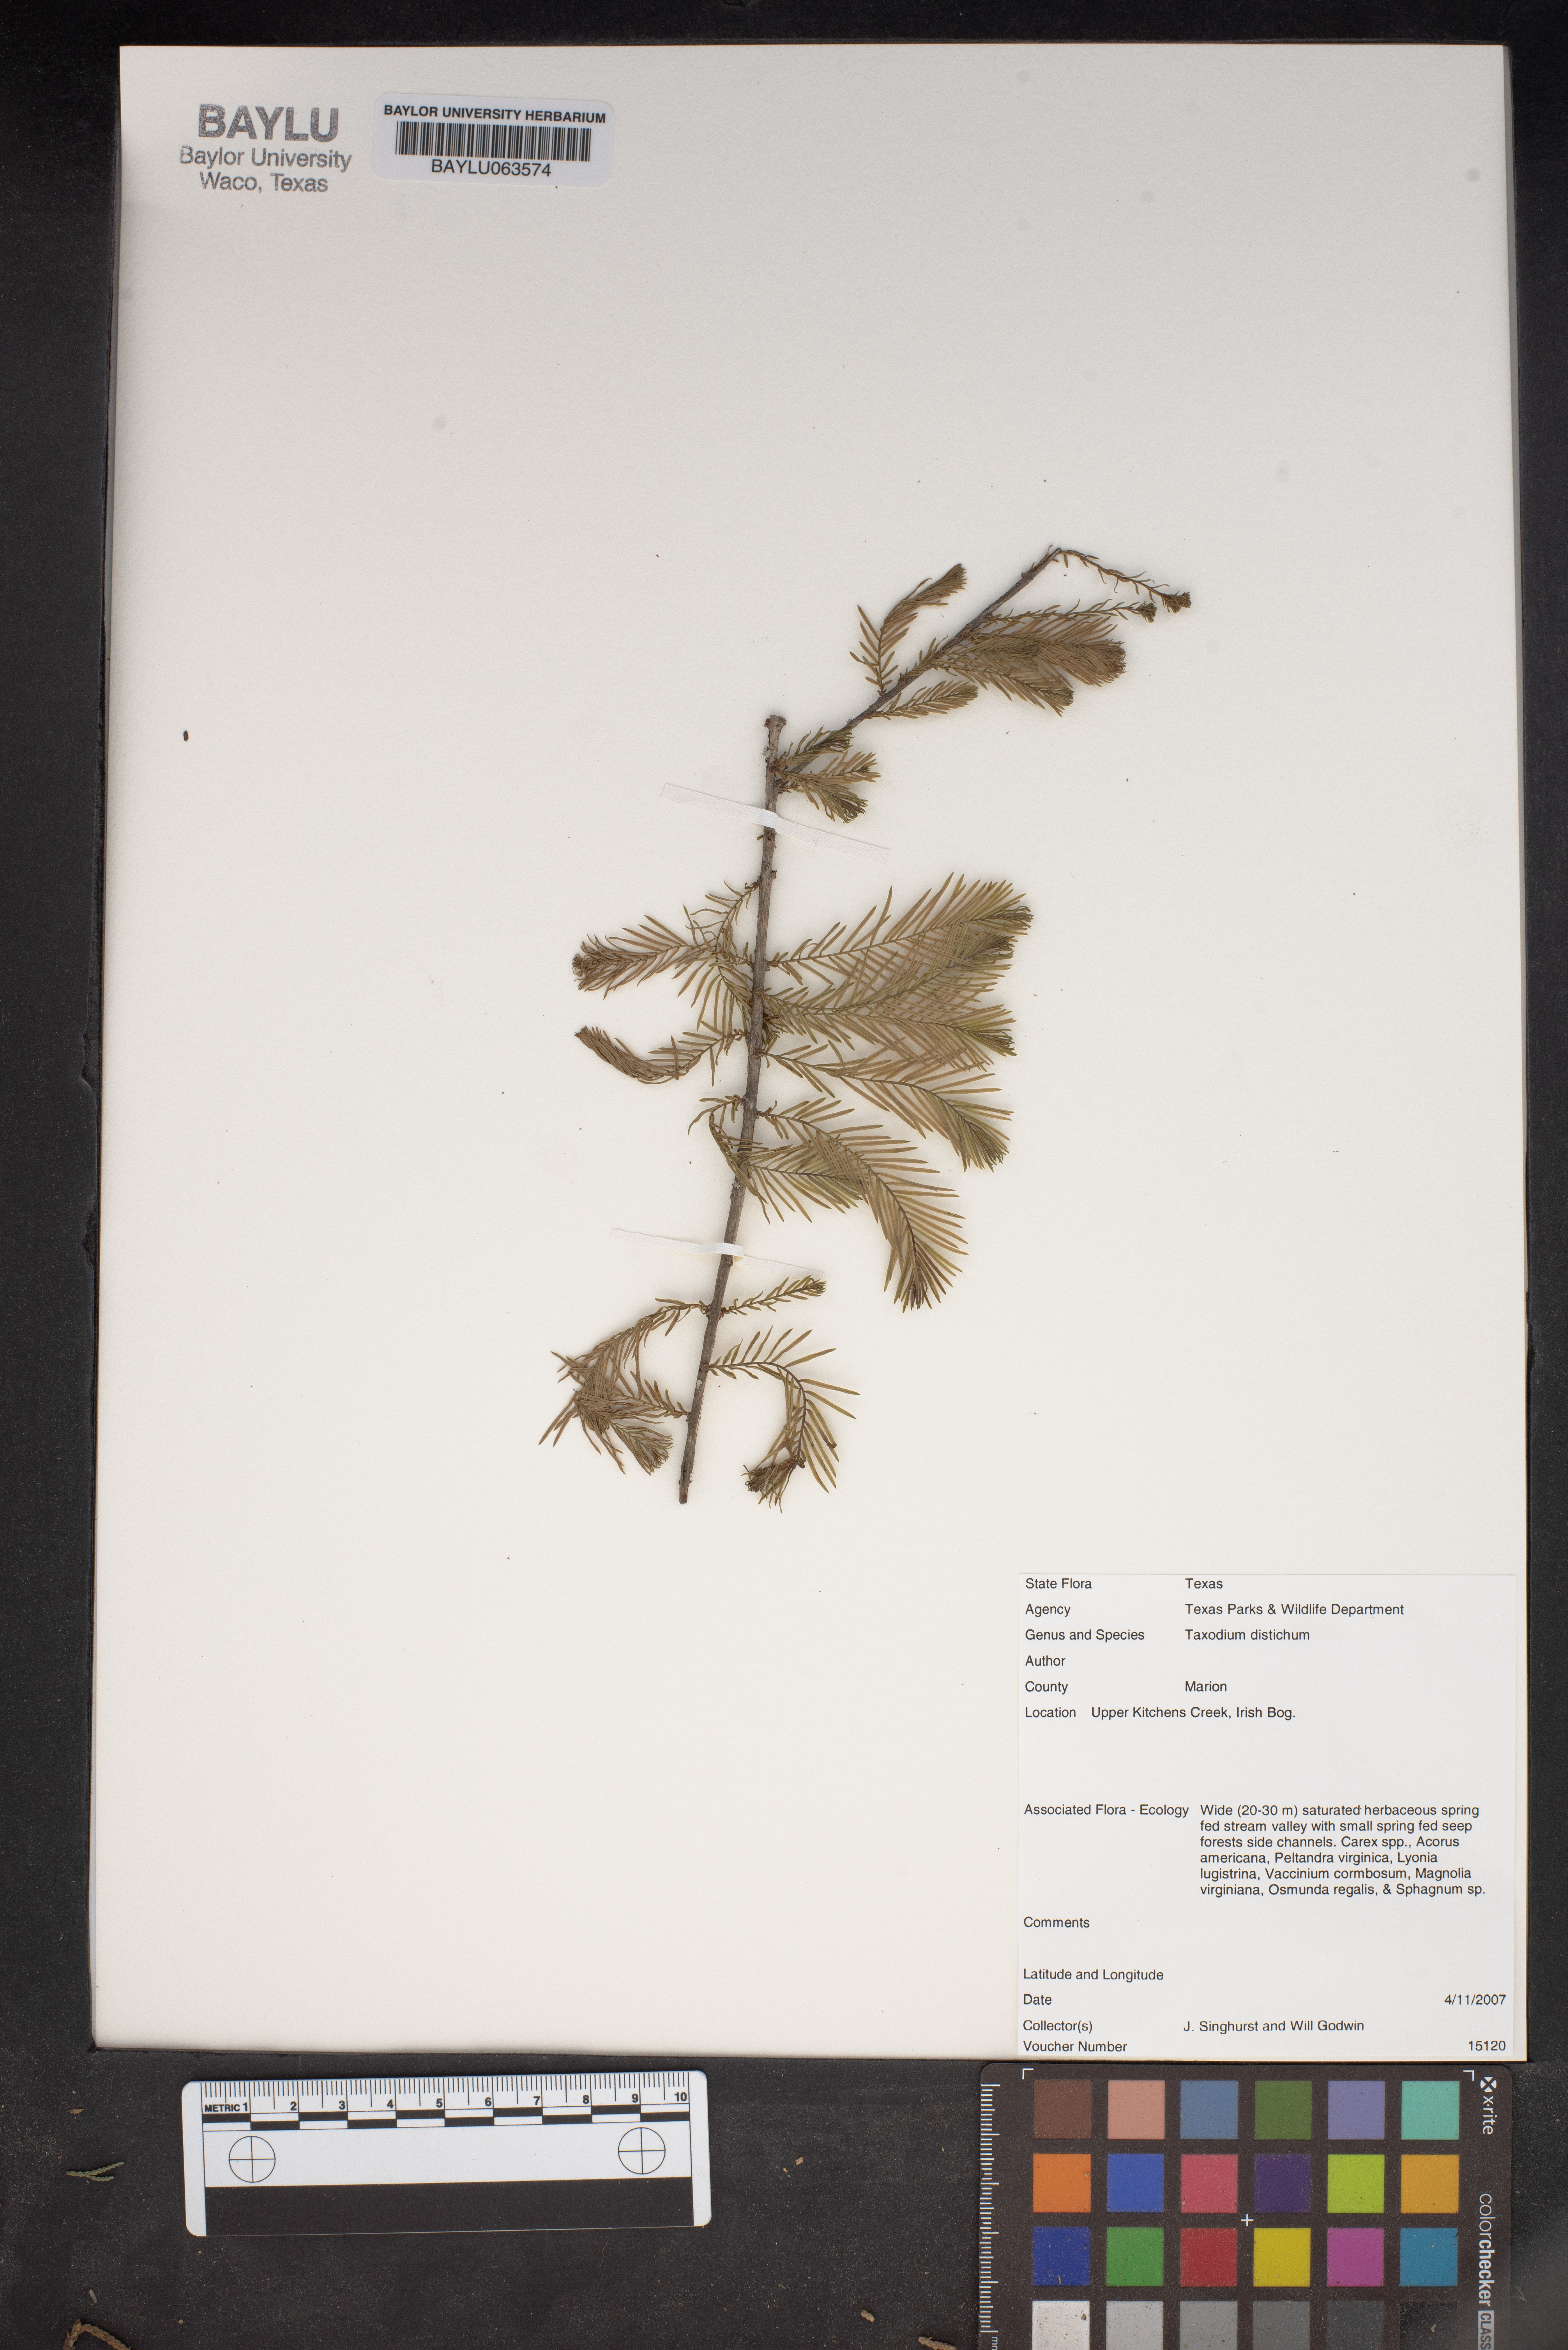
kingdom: Plantae
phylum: Tracheophyta
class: Pinopsida
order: Pinales
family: Cupressaceae
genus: Taxodium
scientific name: Taxodium distichum
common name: Bald cypress
